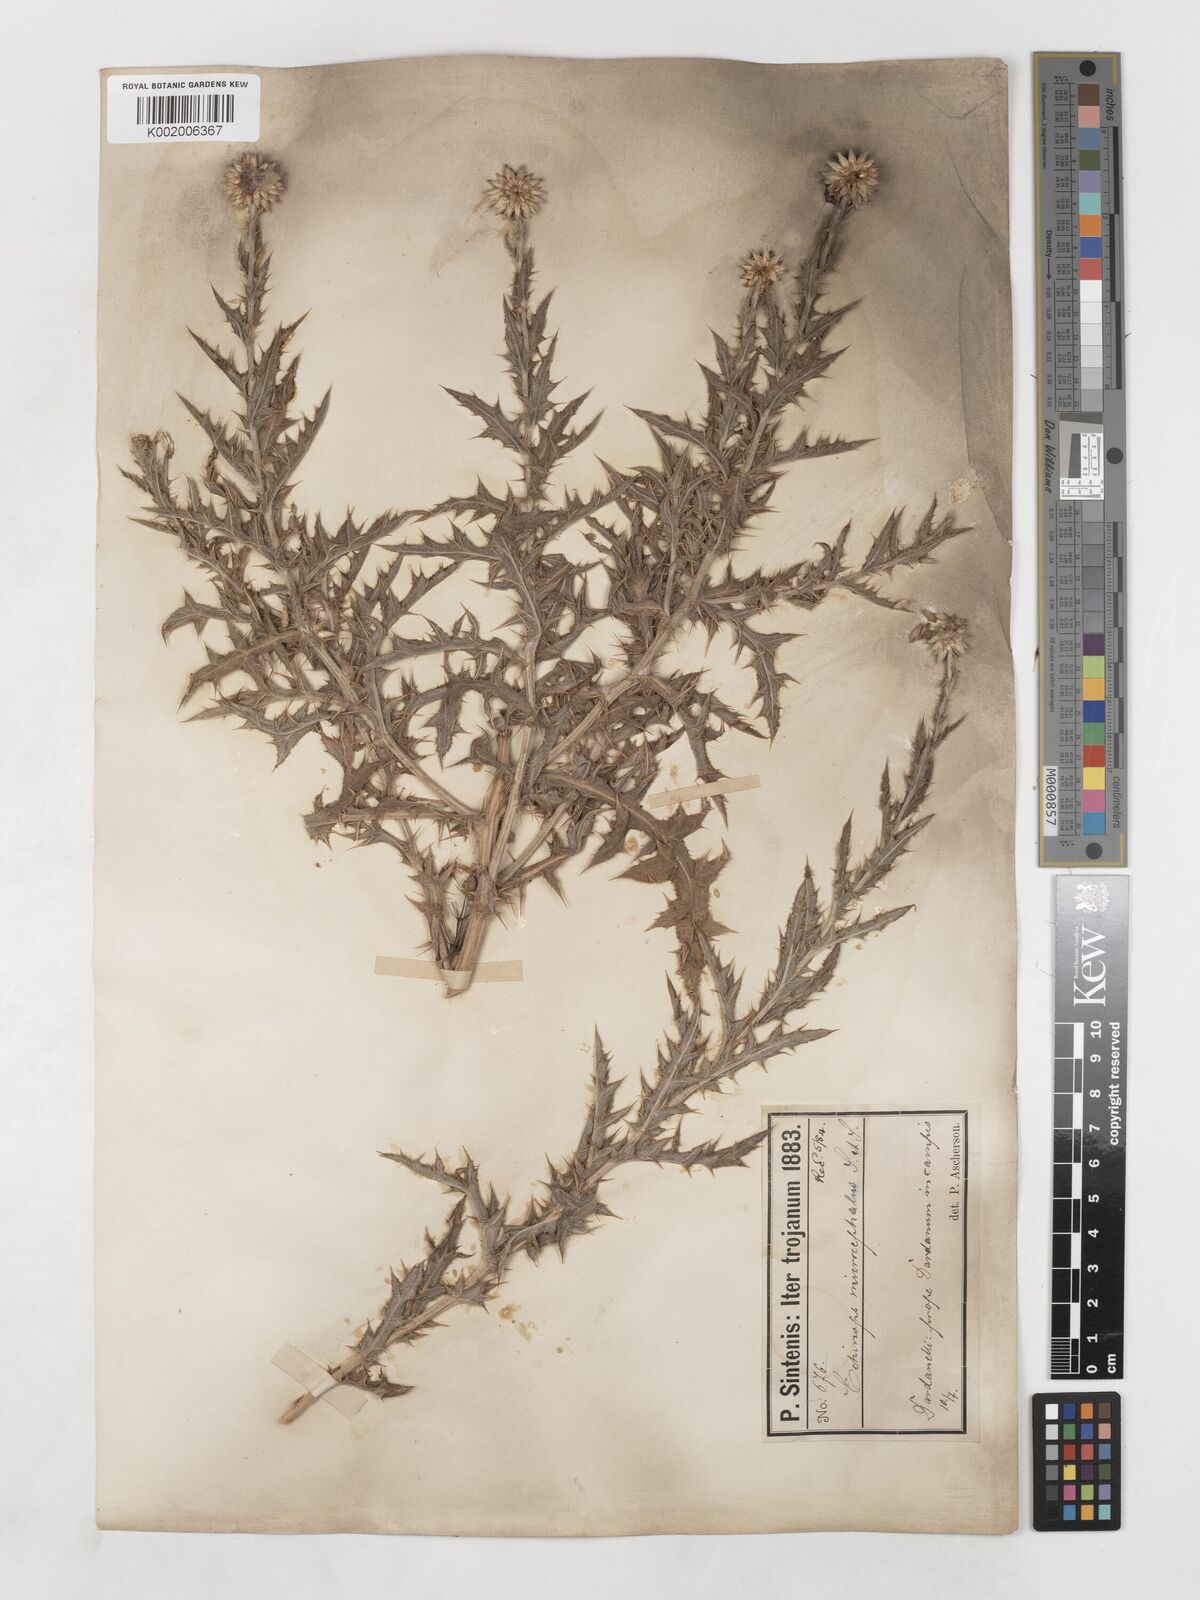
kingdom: Plantae
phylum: Tracheophyta
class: Magnoliopsida
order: Asterales
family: Asteraceae
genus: Echinops
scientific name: Echinops microcephalus
